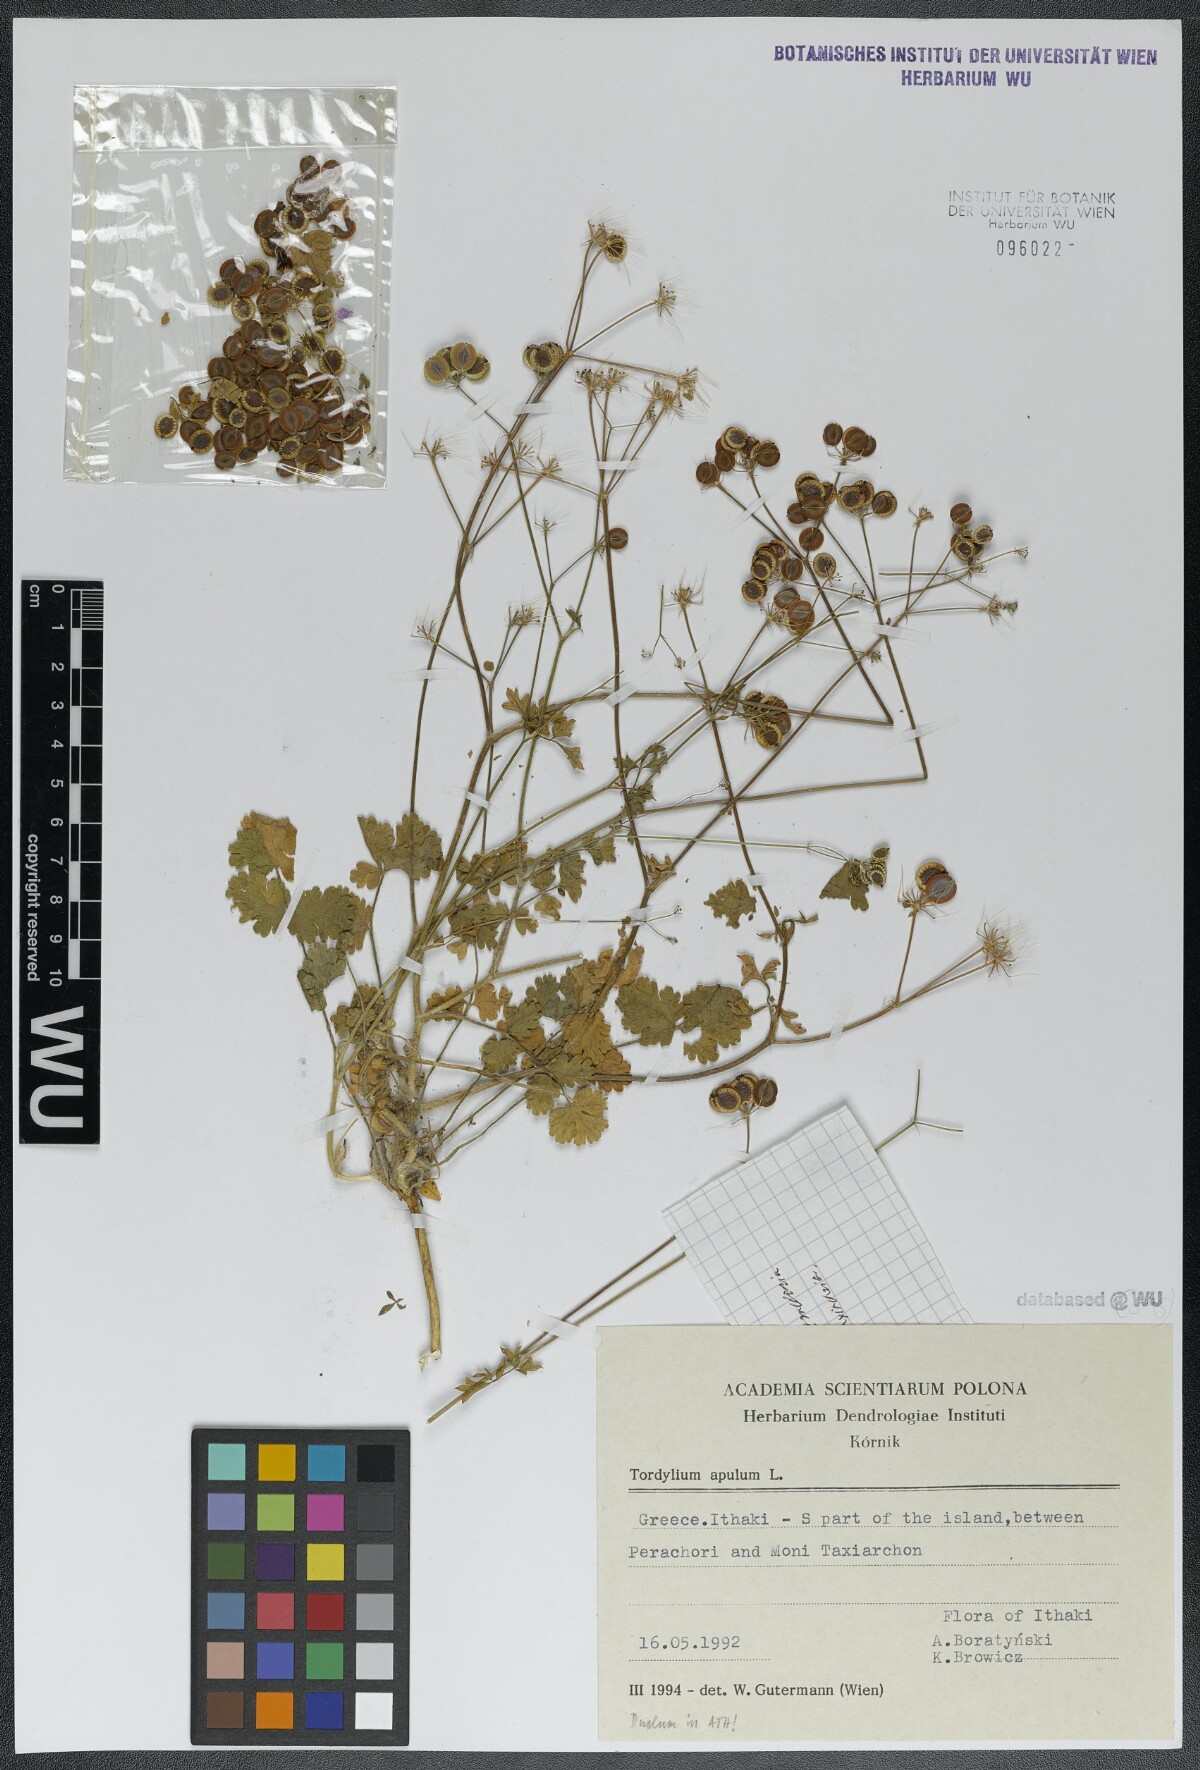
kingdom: Plantae
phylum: Tracheophyta
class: Magnoliopsida
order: Apiales
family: Apiaceae
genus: Tordylium
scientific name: Tordylium apulum
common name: Mediterranean hartwort
